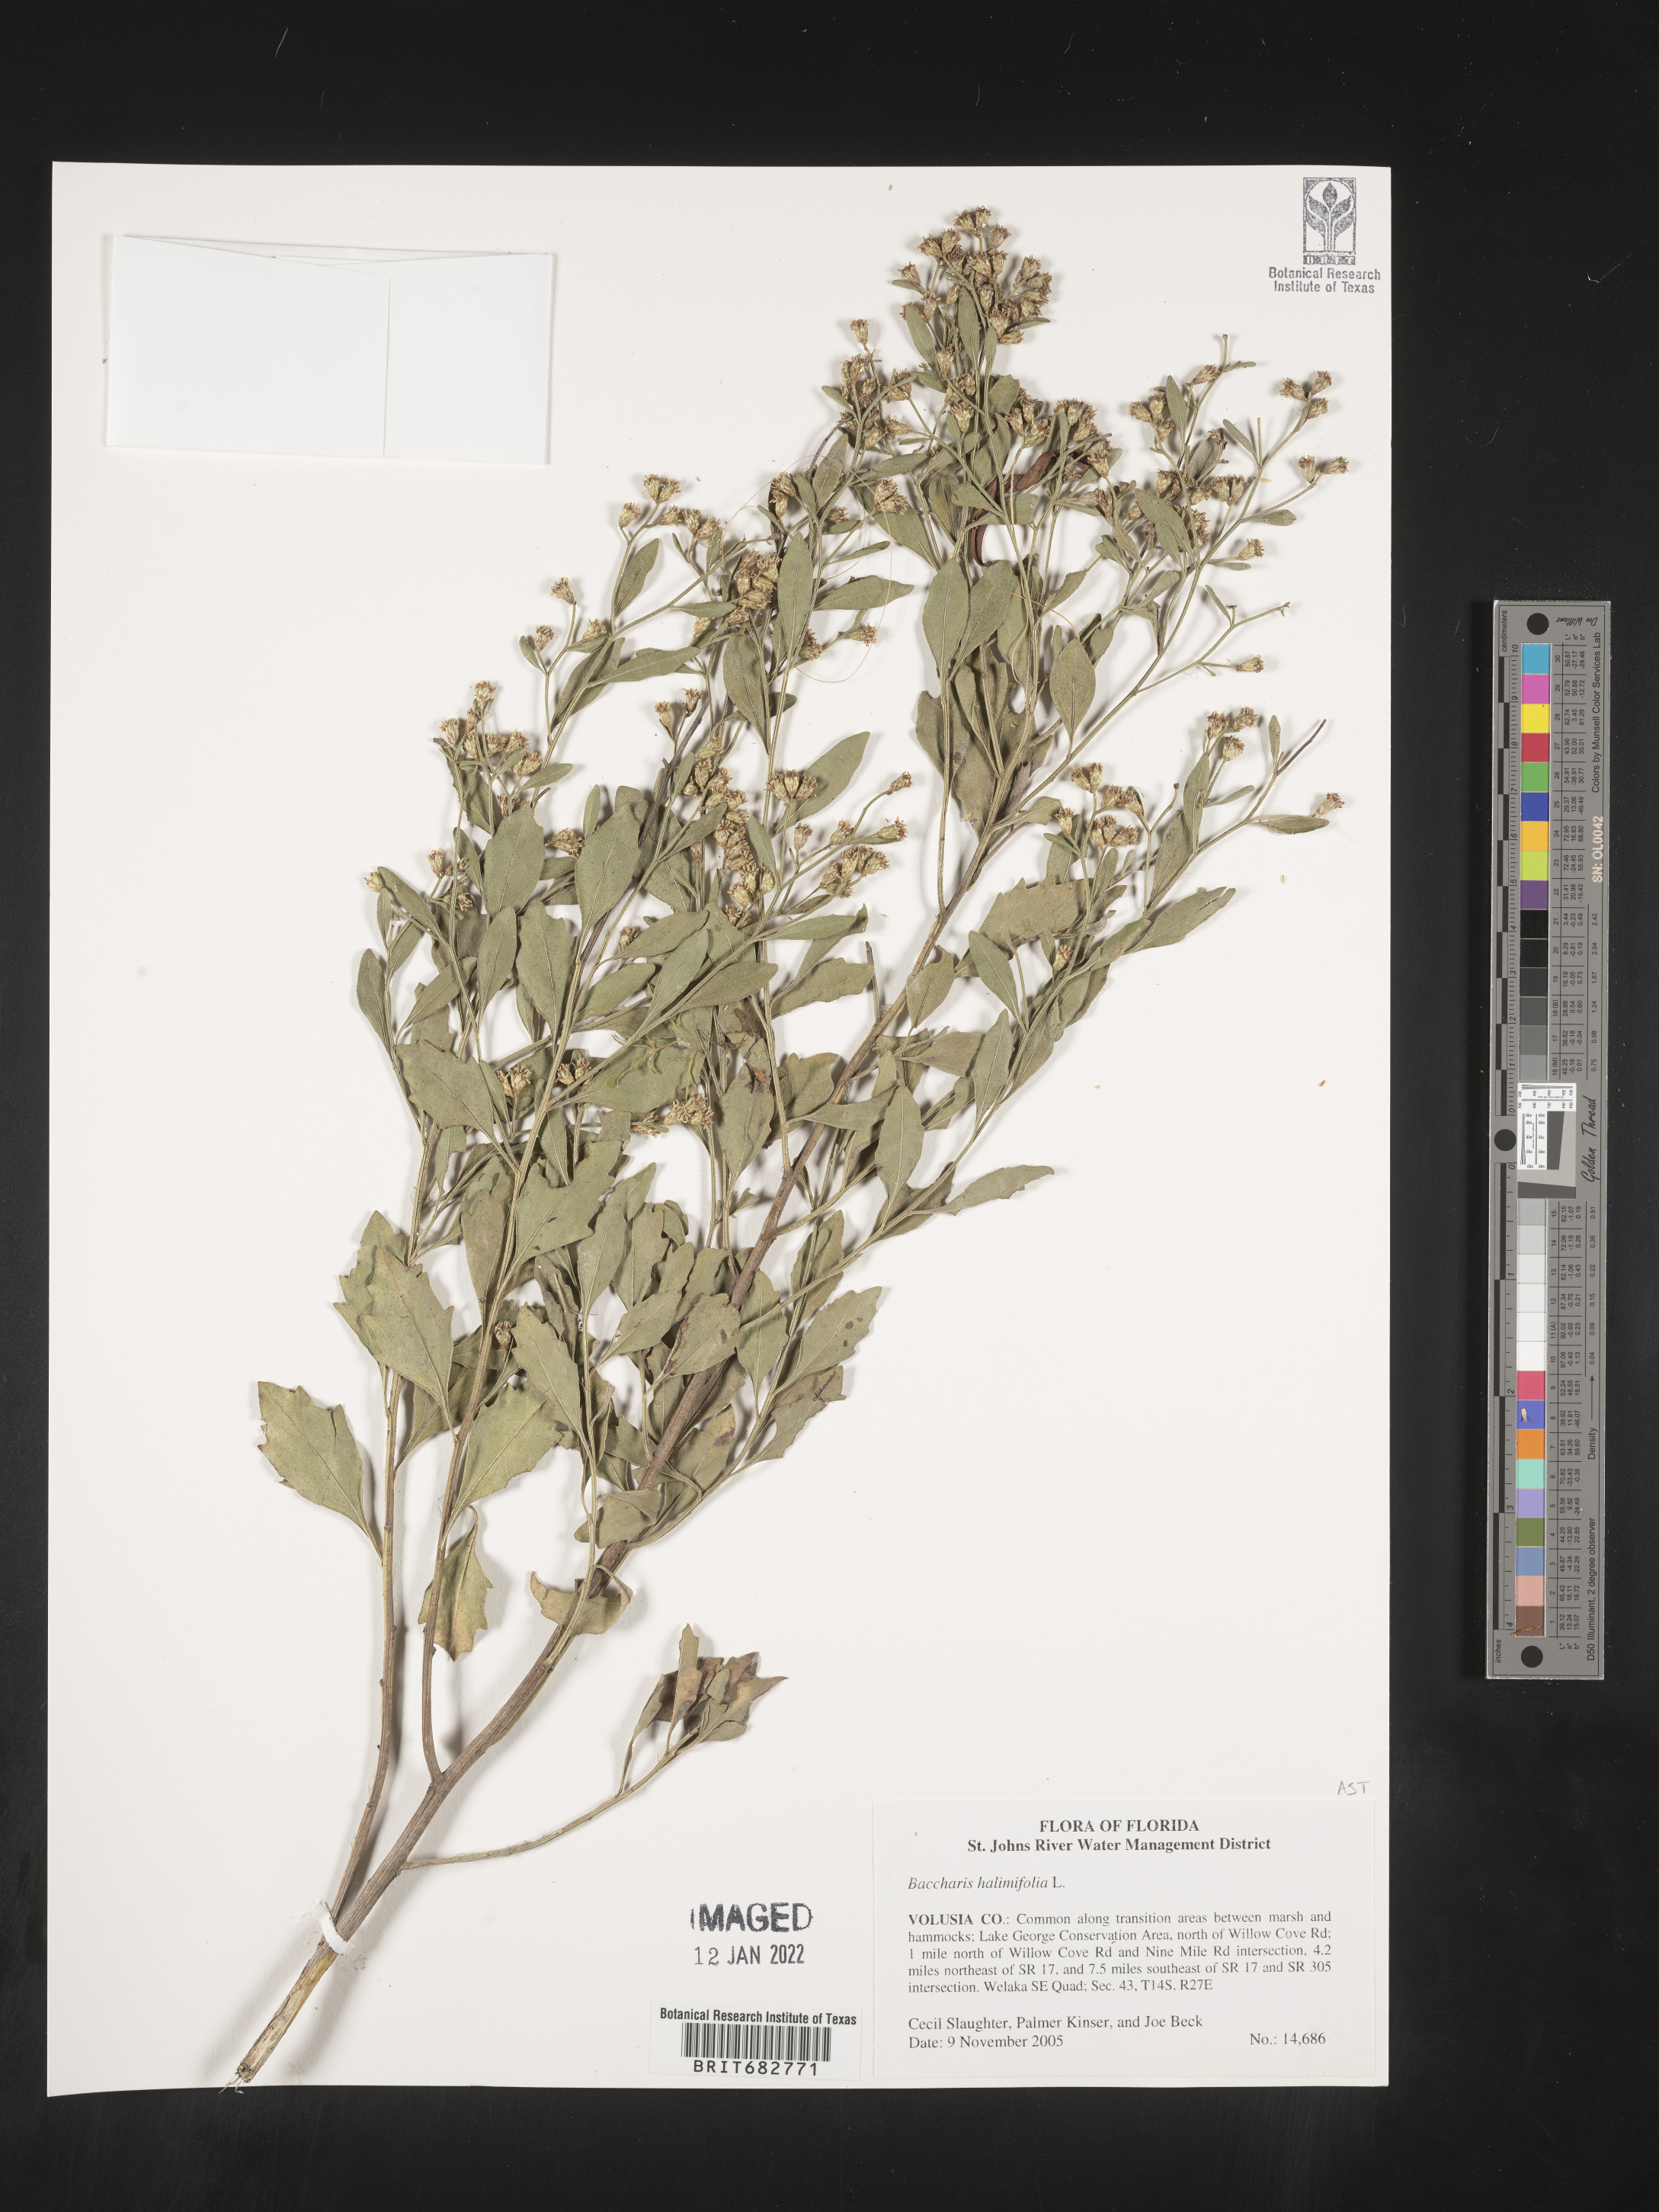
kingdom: Plantae
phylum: Tracheophyta
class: Magnoliopsida
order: Asterales
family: Asteraceae
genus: Nidorella
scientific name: Nidorella ivifolia
